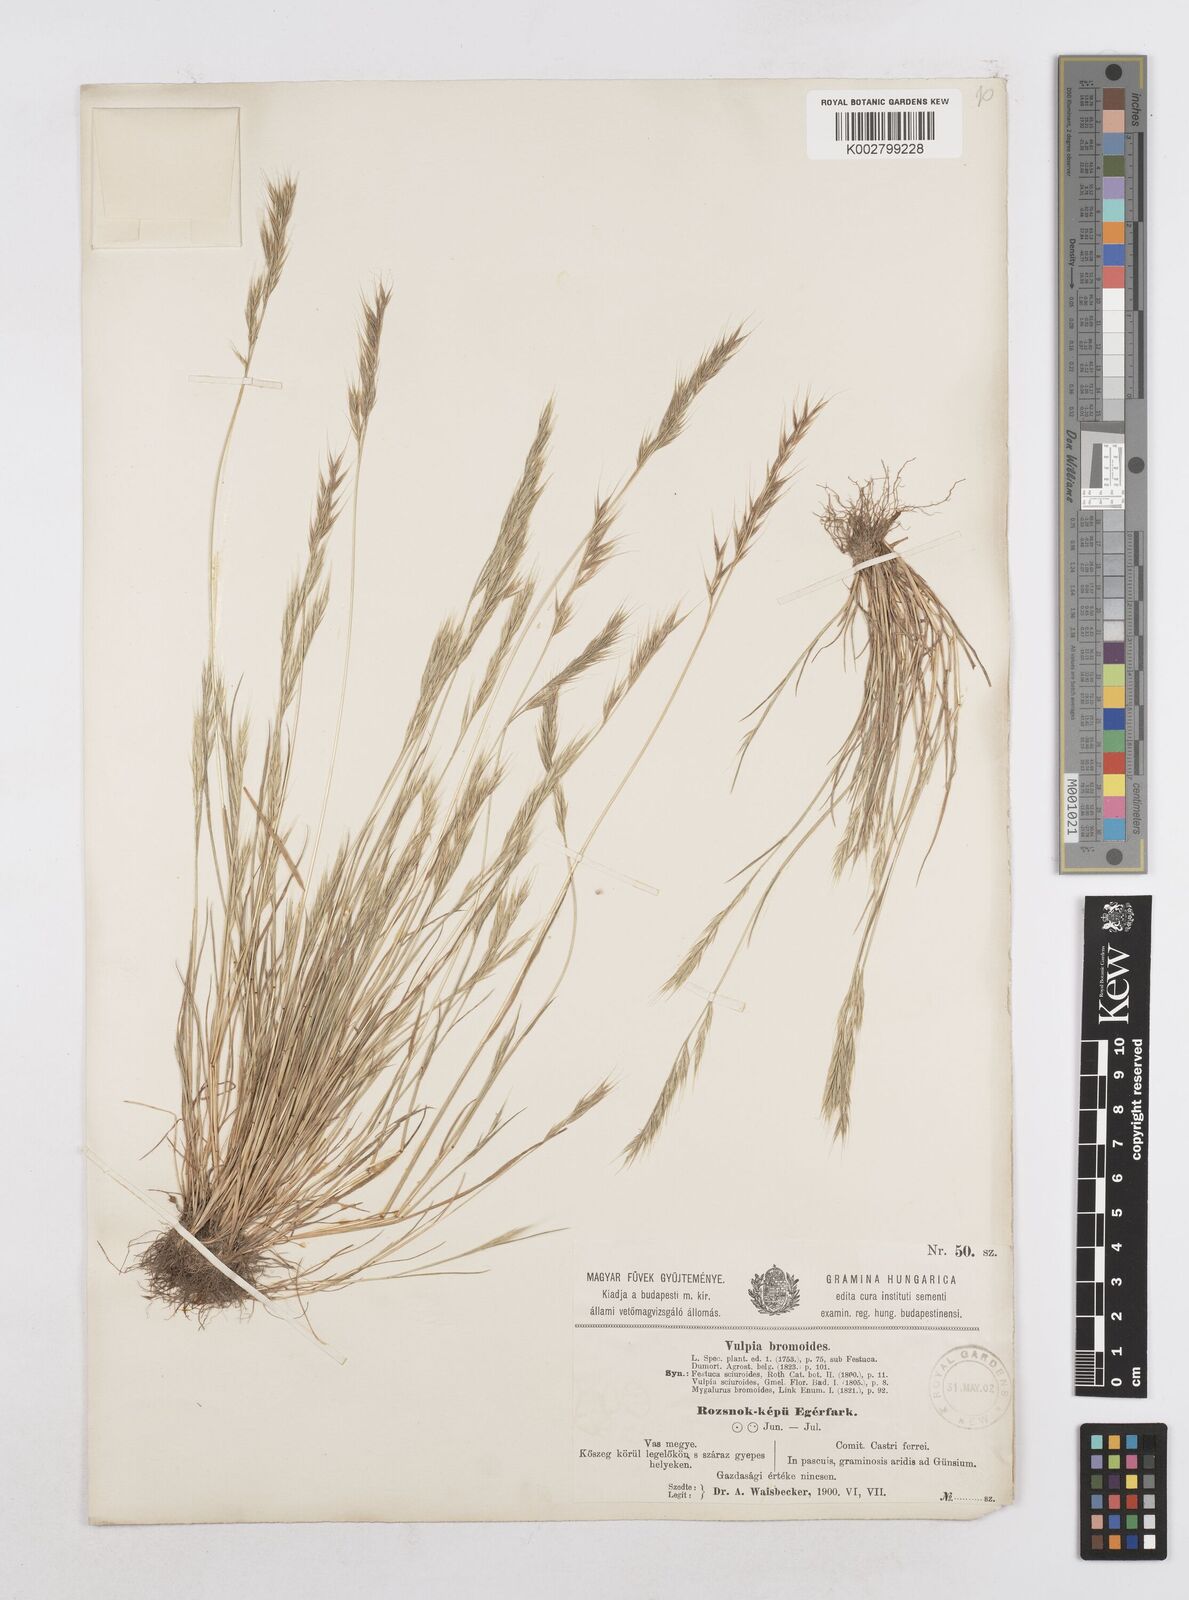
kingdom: Plantae
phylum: Tracheophyta
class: Liliopsida
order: Poales
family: Poaceae
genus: Festuca
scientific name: Festuca bromoides
